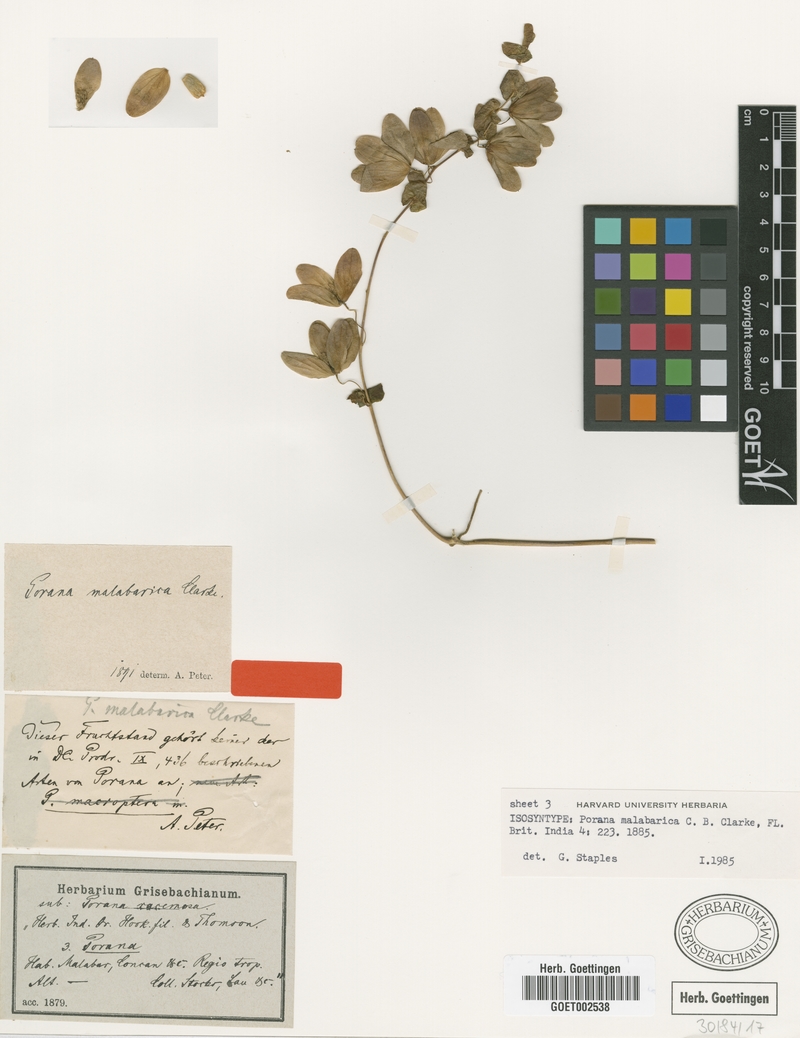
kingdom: Plantae
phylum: Tracheophyta
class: Magnoliopsida
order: Solanales
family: Convolvulaceae
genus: Dinetus
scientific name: Dinetus malabaricus
